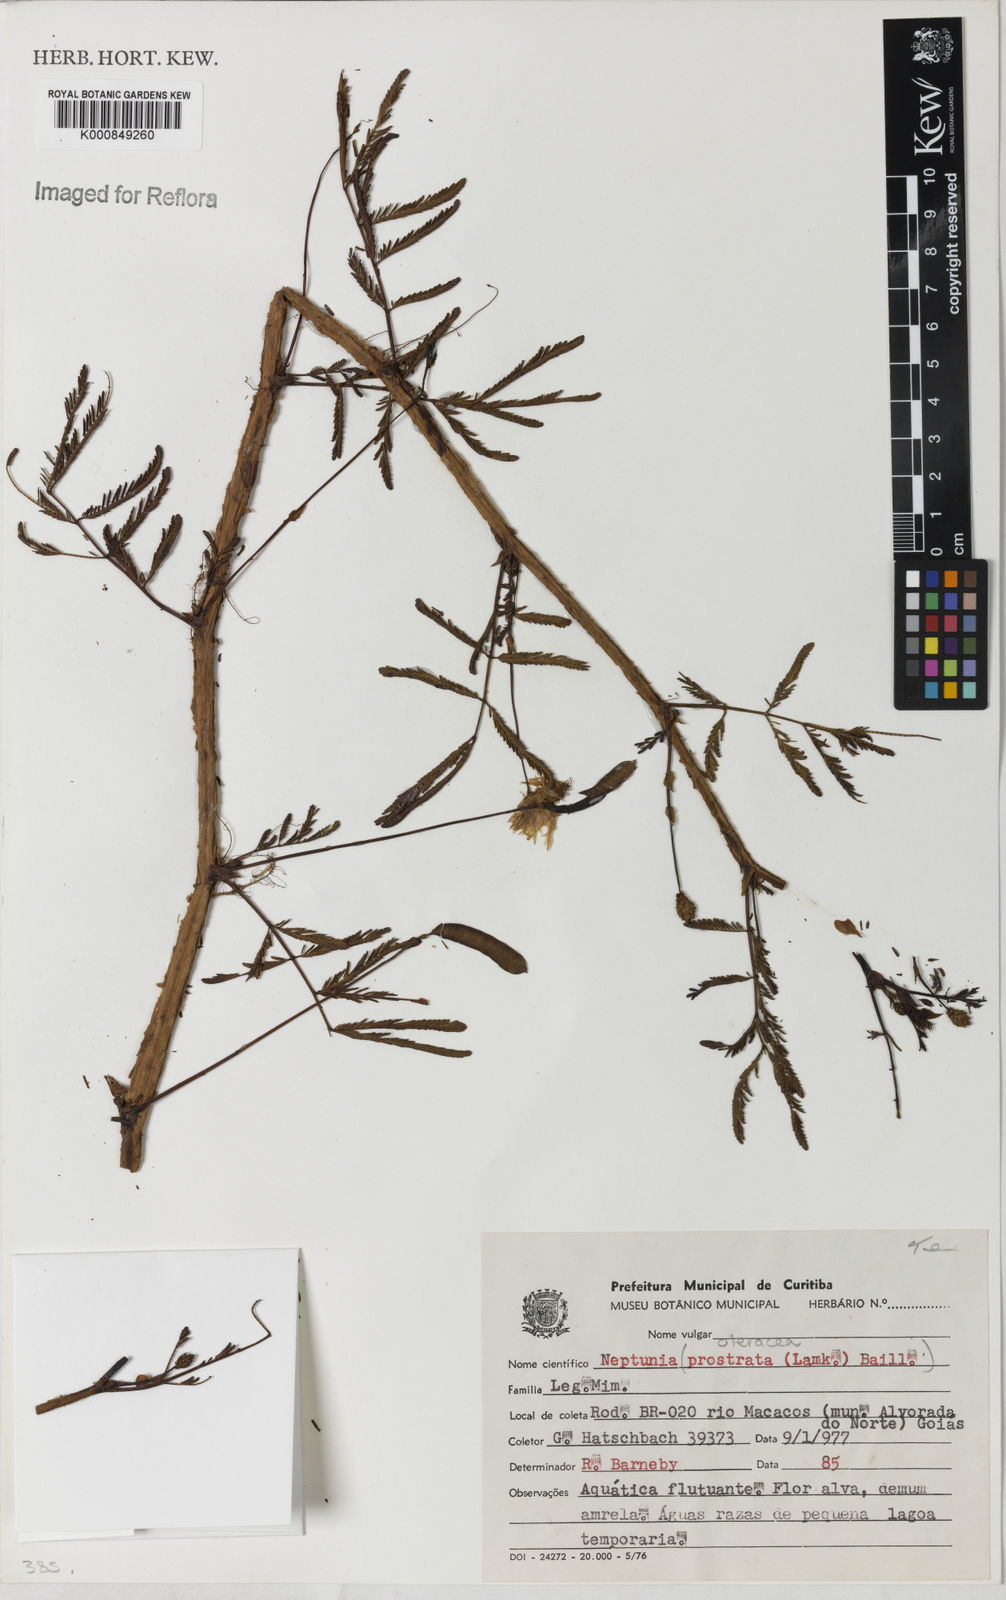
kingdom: Plantae
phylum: Tracheophyta
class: Magnoliopsida
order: Fabales
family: Fabaceae
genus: Neptunia
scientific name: Neptunia prostrata
